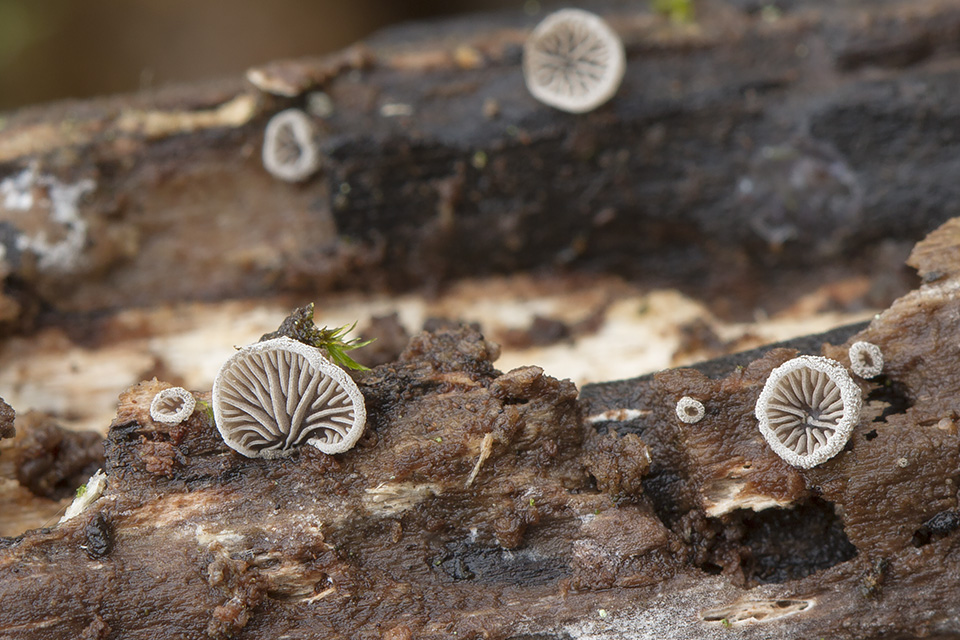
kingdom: Fungi
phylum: Basidiomycota
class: Agaricomycetes
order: Agaricales
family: Pleurotaceae
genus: Resupinatus
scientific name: Resupinatus applicatus
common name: lysfiltet barkhat
